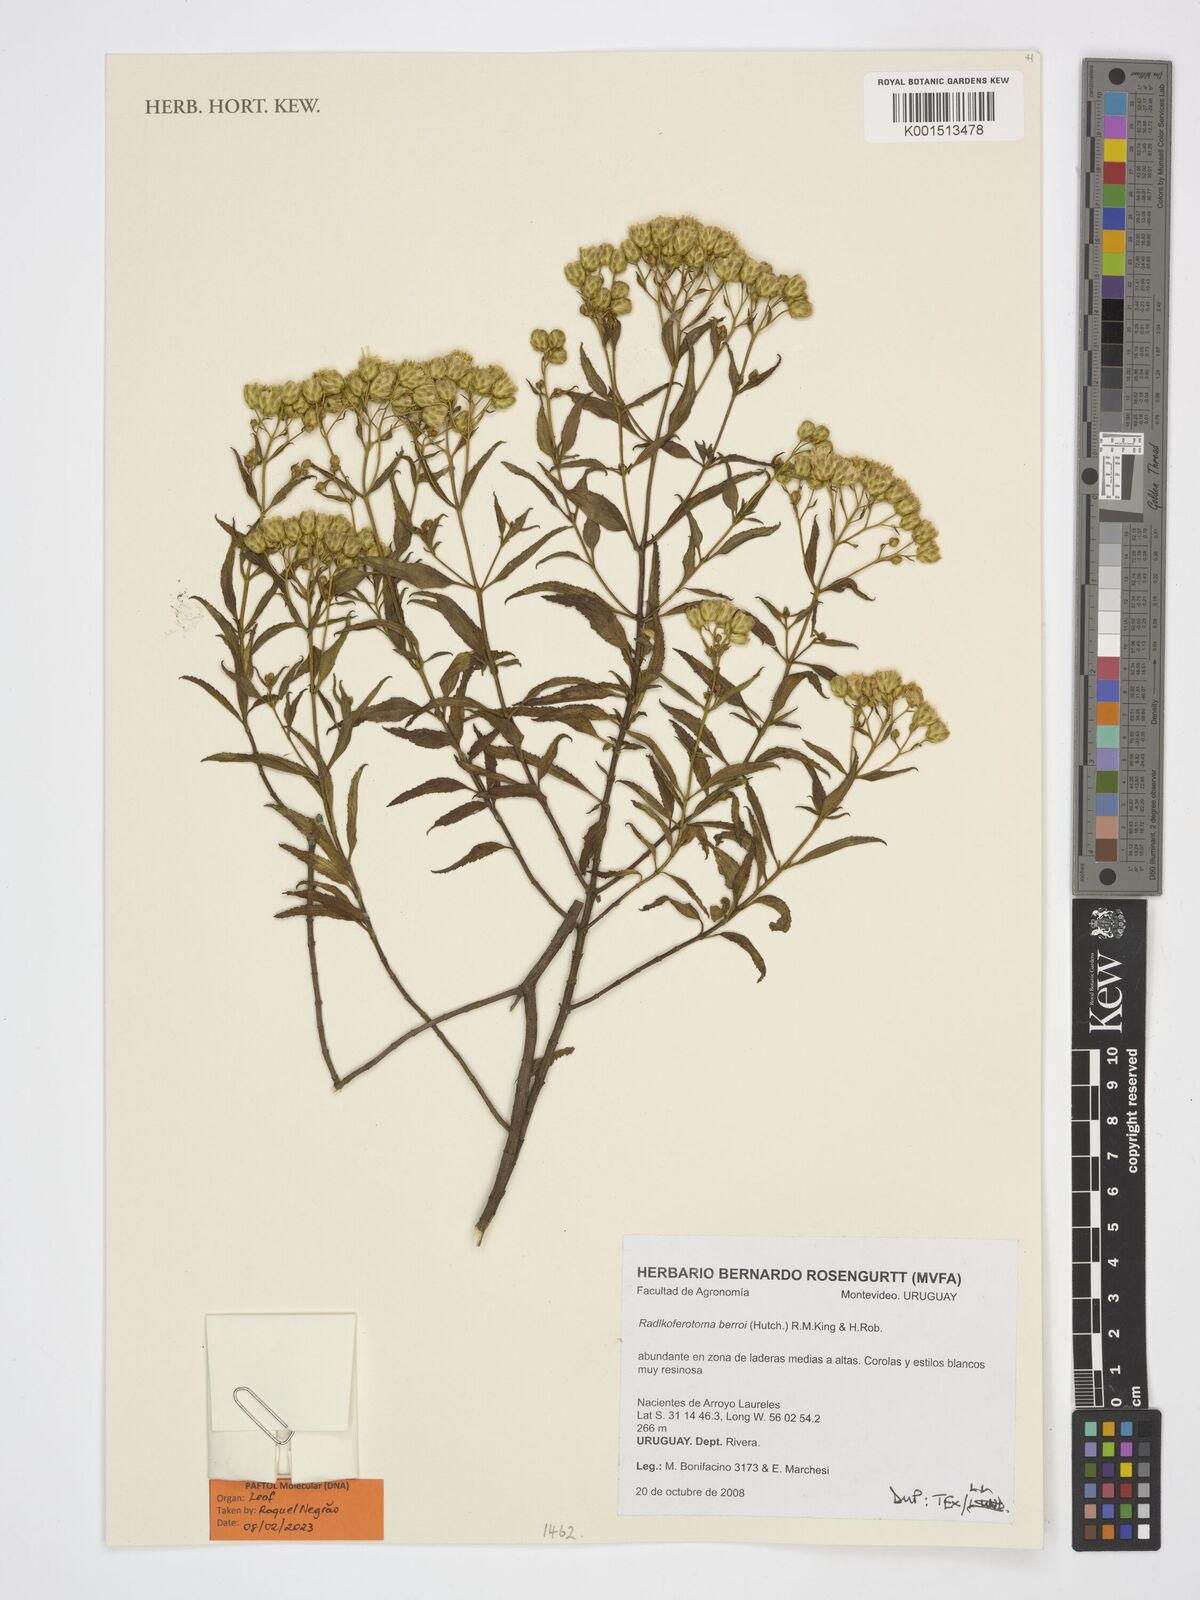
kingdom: Plantae
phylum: Tracheophyta
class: Magnoliopsida
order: Asterales
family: Asteraceae
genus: Radlkoferotoma
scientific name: Radlkoferotoma berroi
